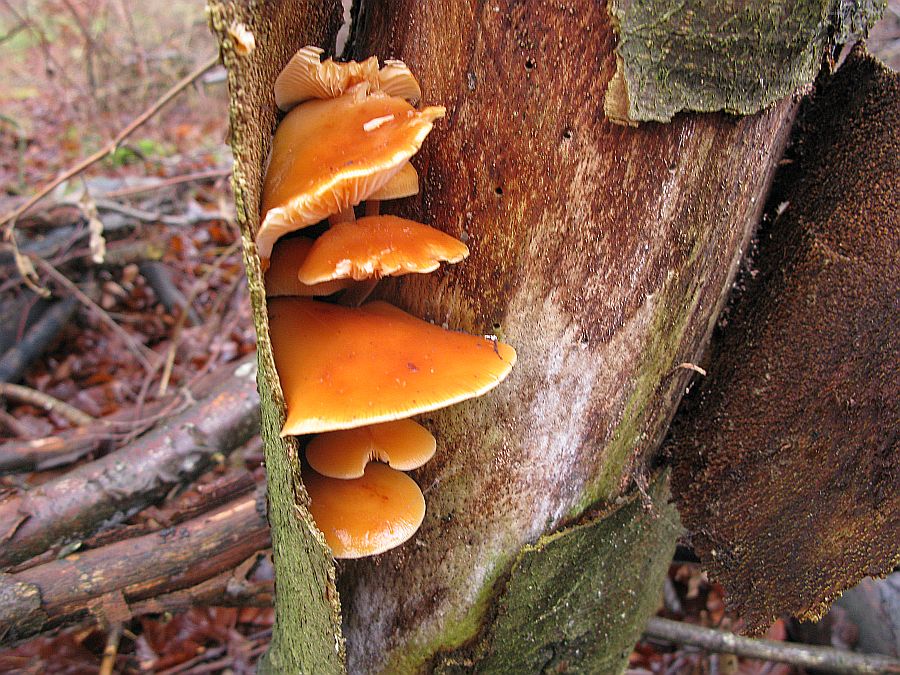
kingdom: Fungi
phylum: Basidiomycota
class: Agaricomycetes
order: Agaricales
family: Physalacriaceae
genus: Flammulina
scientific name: Flammulina velutipes
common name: gul fløjlsfod
